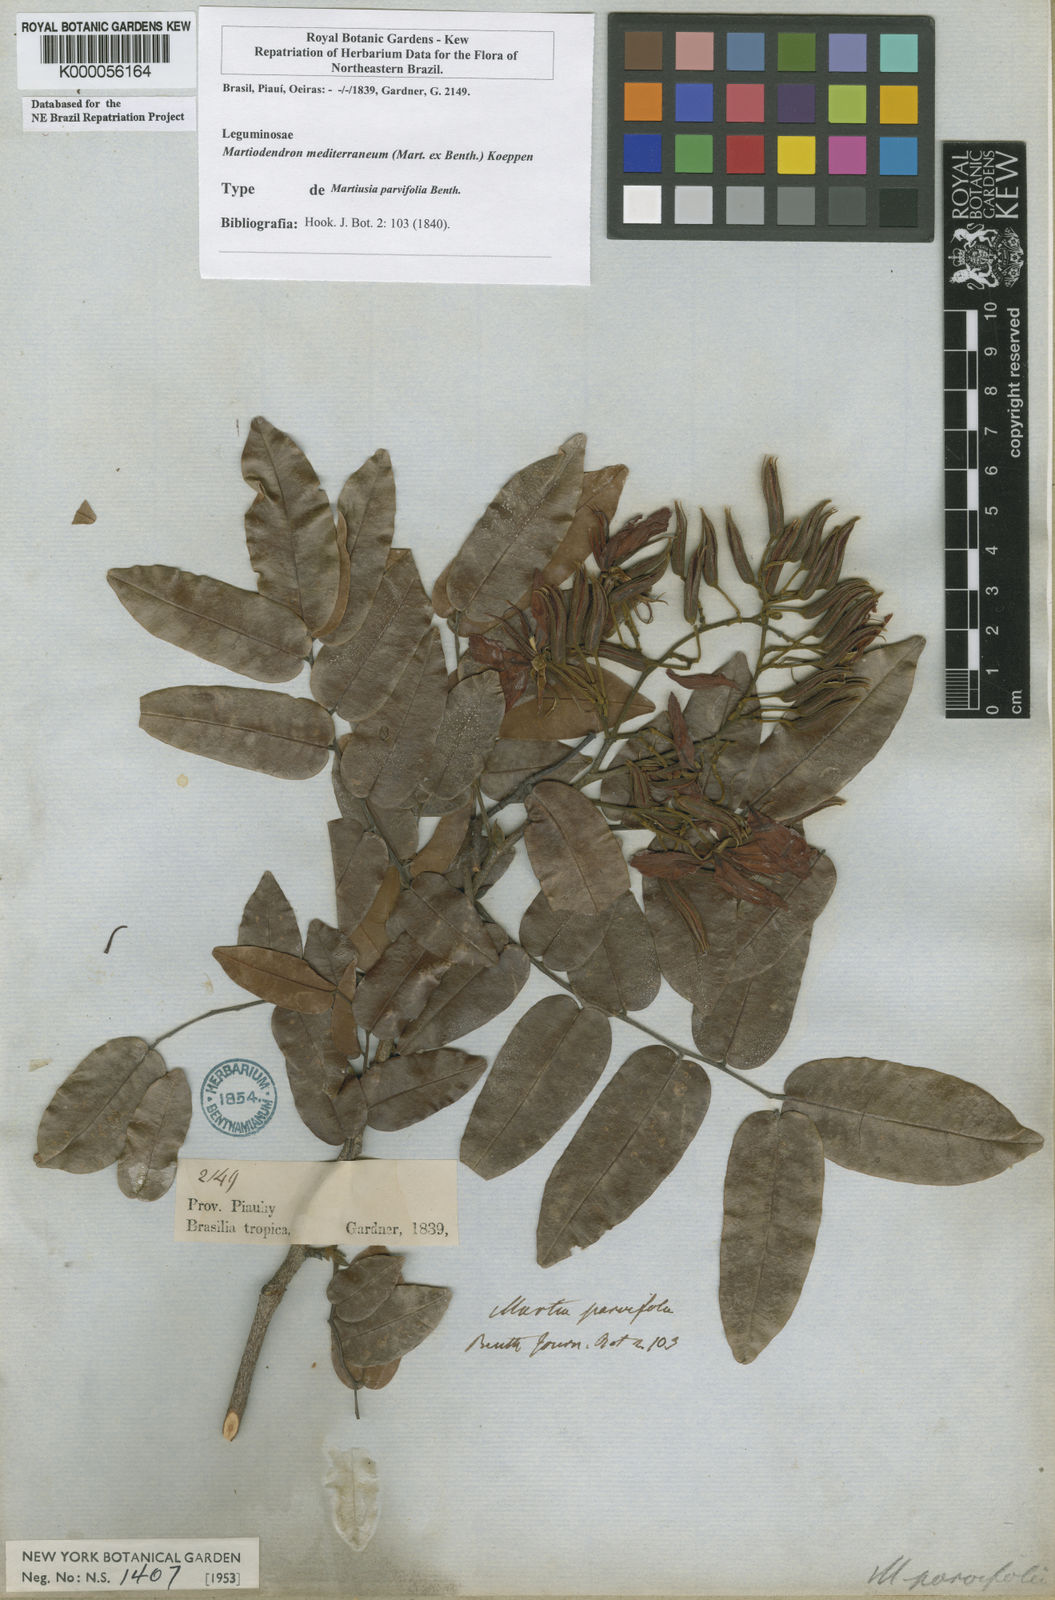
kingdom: Plantae
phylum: Tracheophyta
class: Magnoliopsida
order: Fabales
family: Fabaceae
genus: Martiodendron
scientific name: Martiodendron
